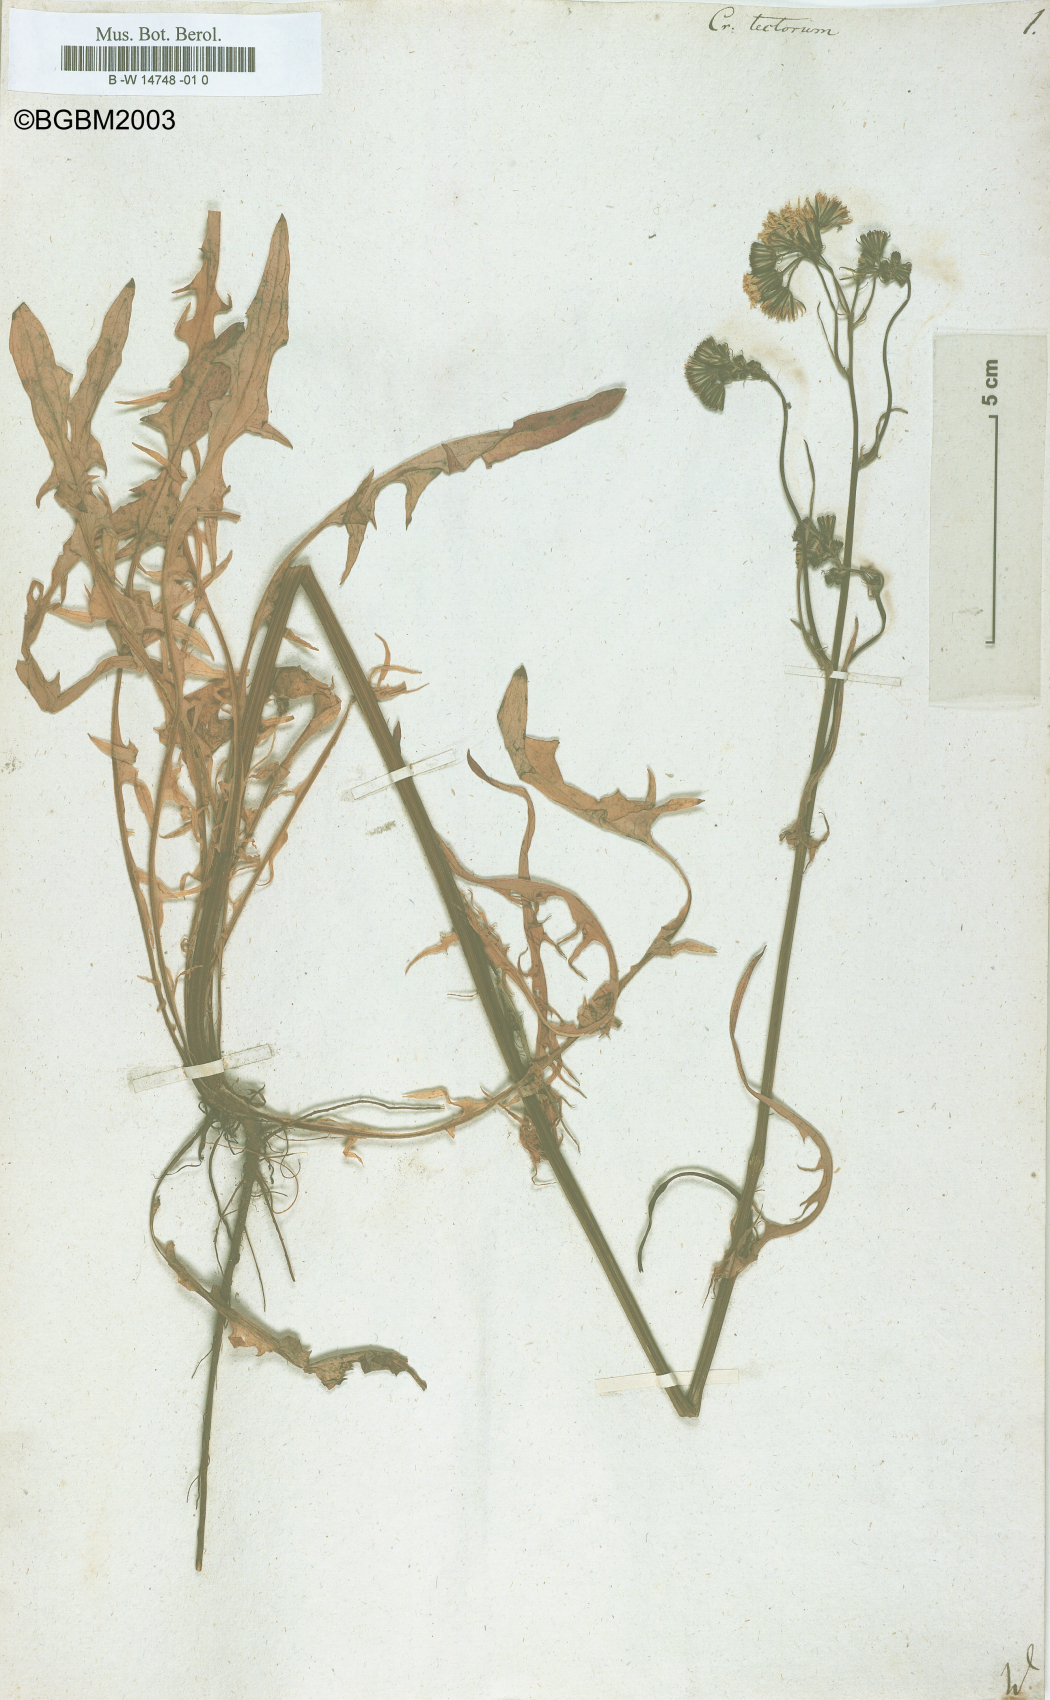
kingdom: Plantae
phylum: Tracheophyta
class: Magnoliopsida
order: Asterales
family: Asteraceae
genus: Crepis
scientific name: Crepis tectorum
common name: Narrow-leaved hawk's-beard
